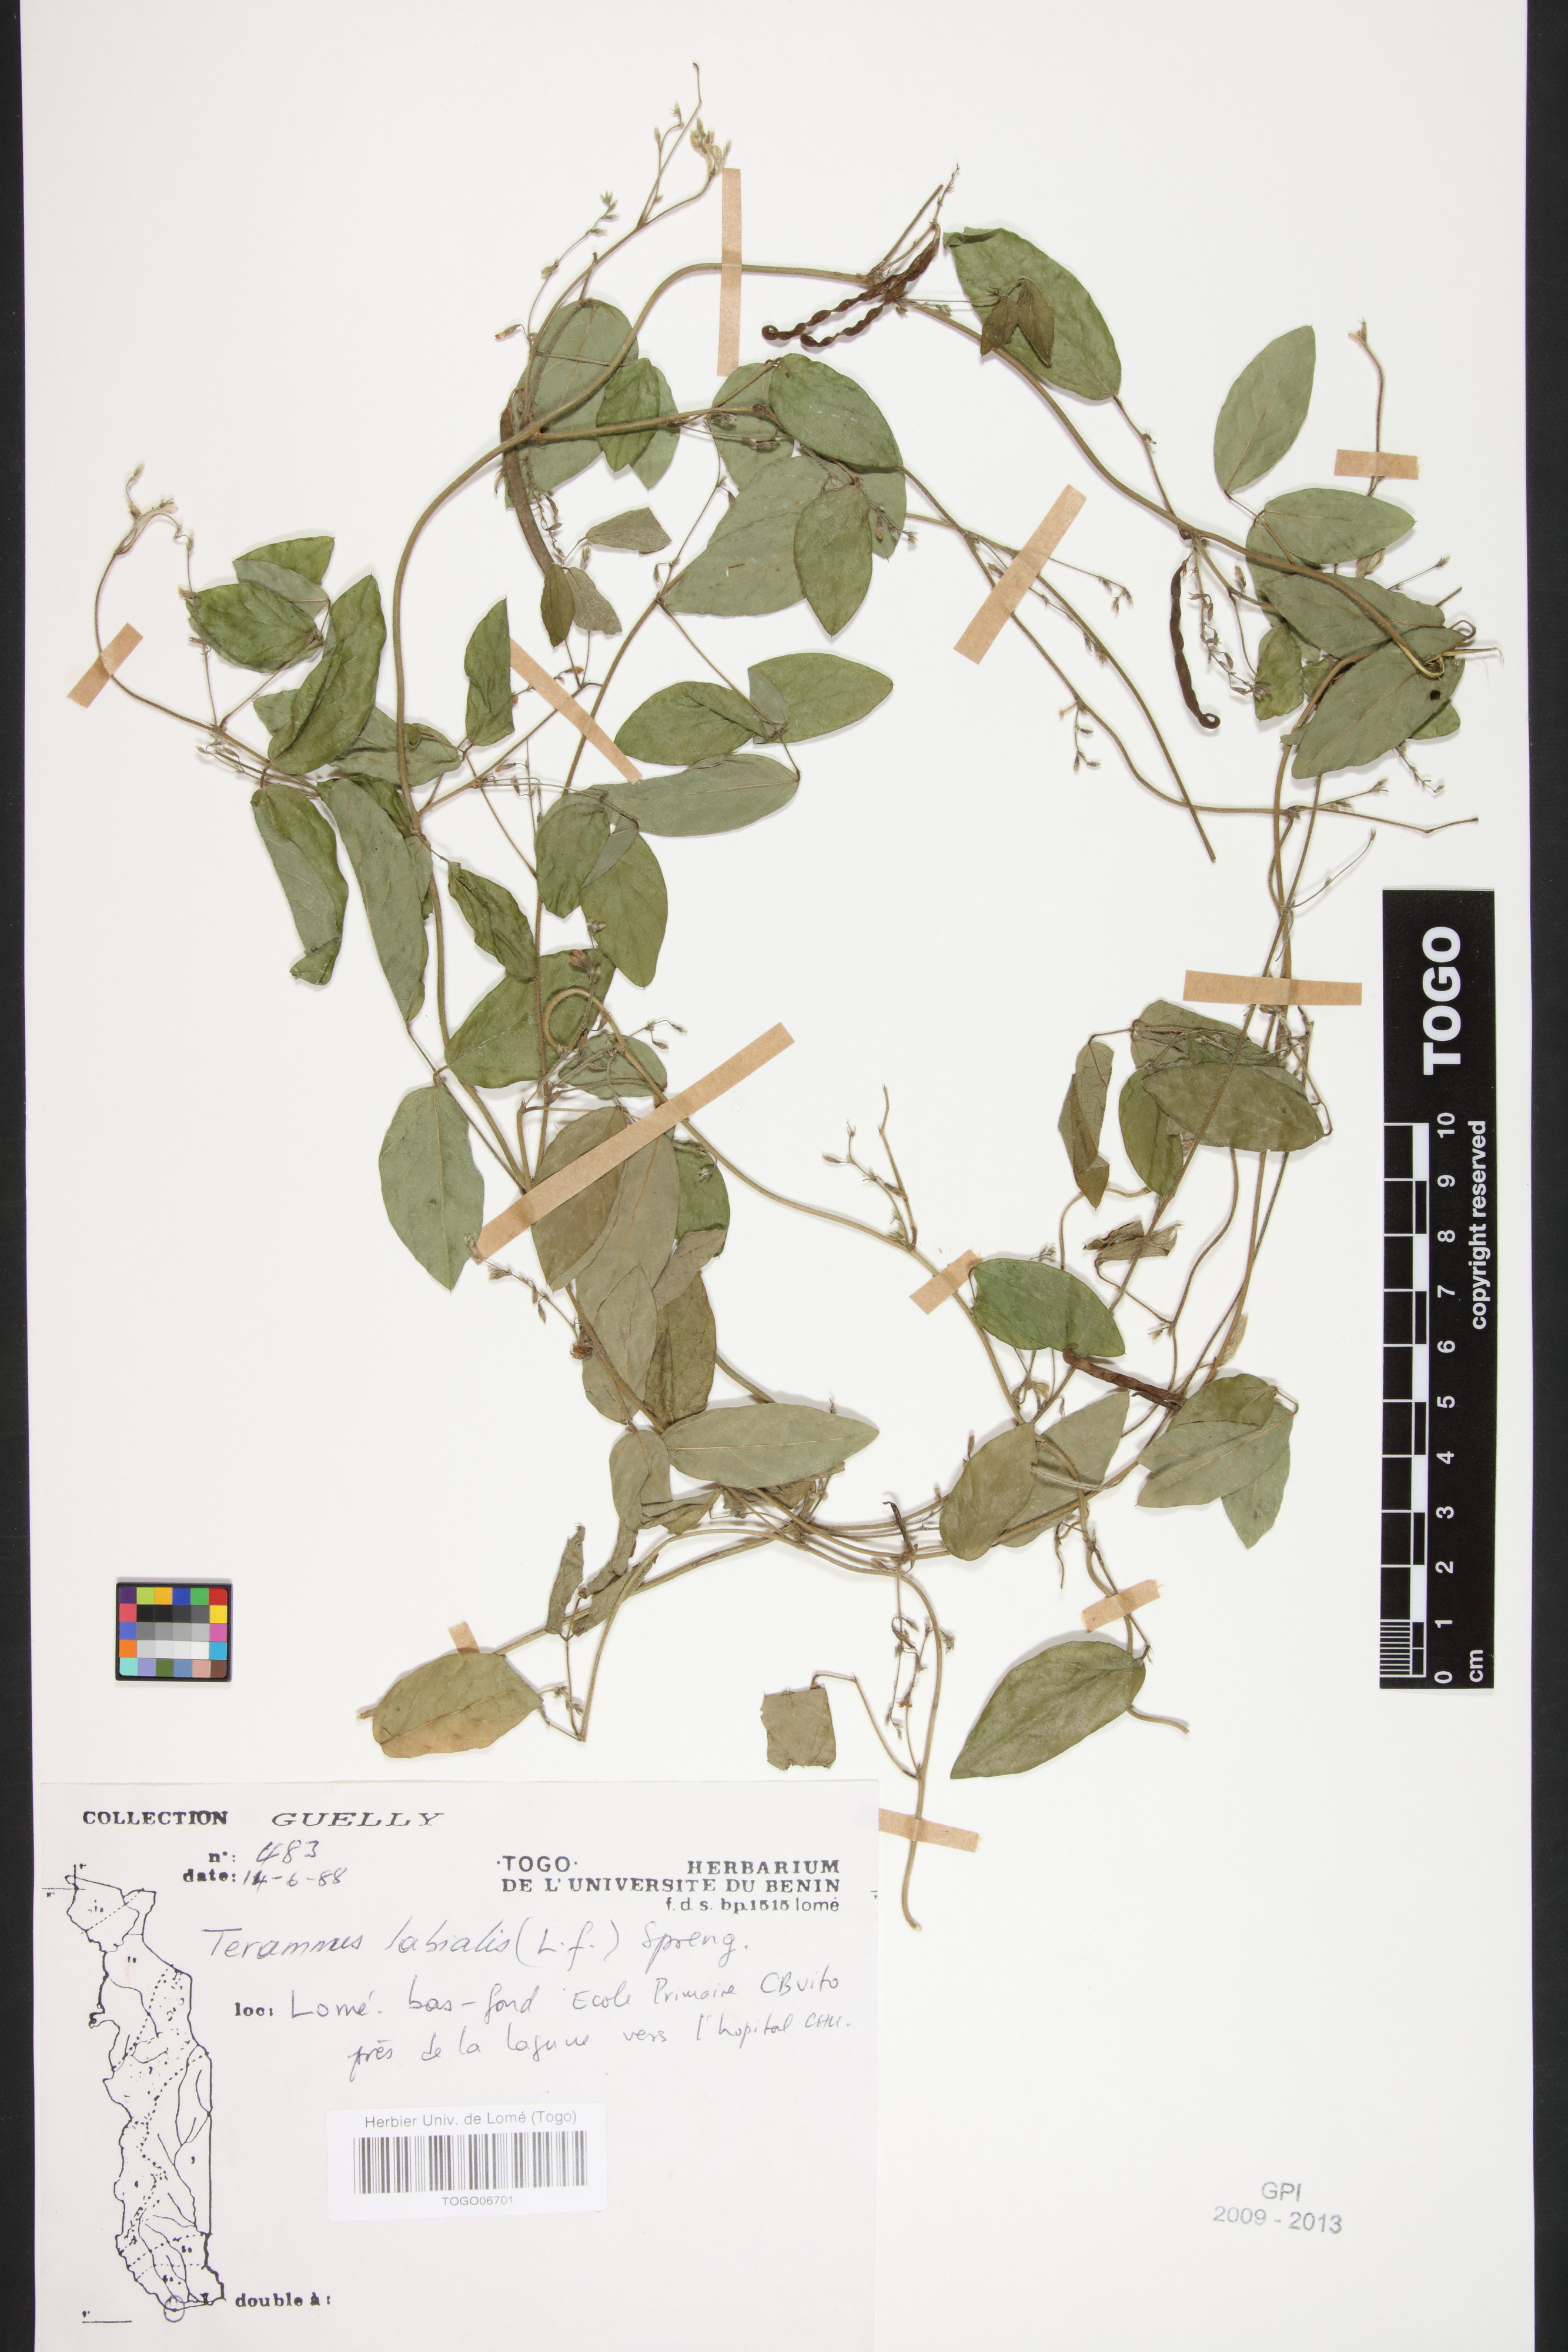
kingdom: Plantae
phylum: Tracheophyta
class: Magnoliopsida
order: Fabales
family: Fabaceae
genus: Teramnus
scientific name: Teramnus labialis
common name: Blue wiss
